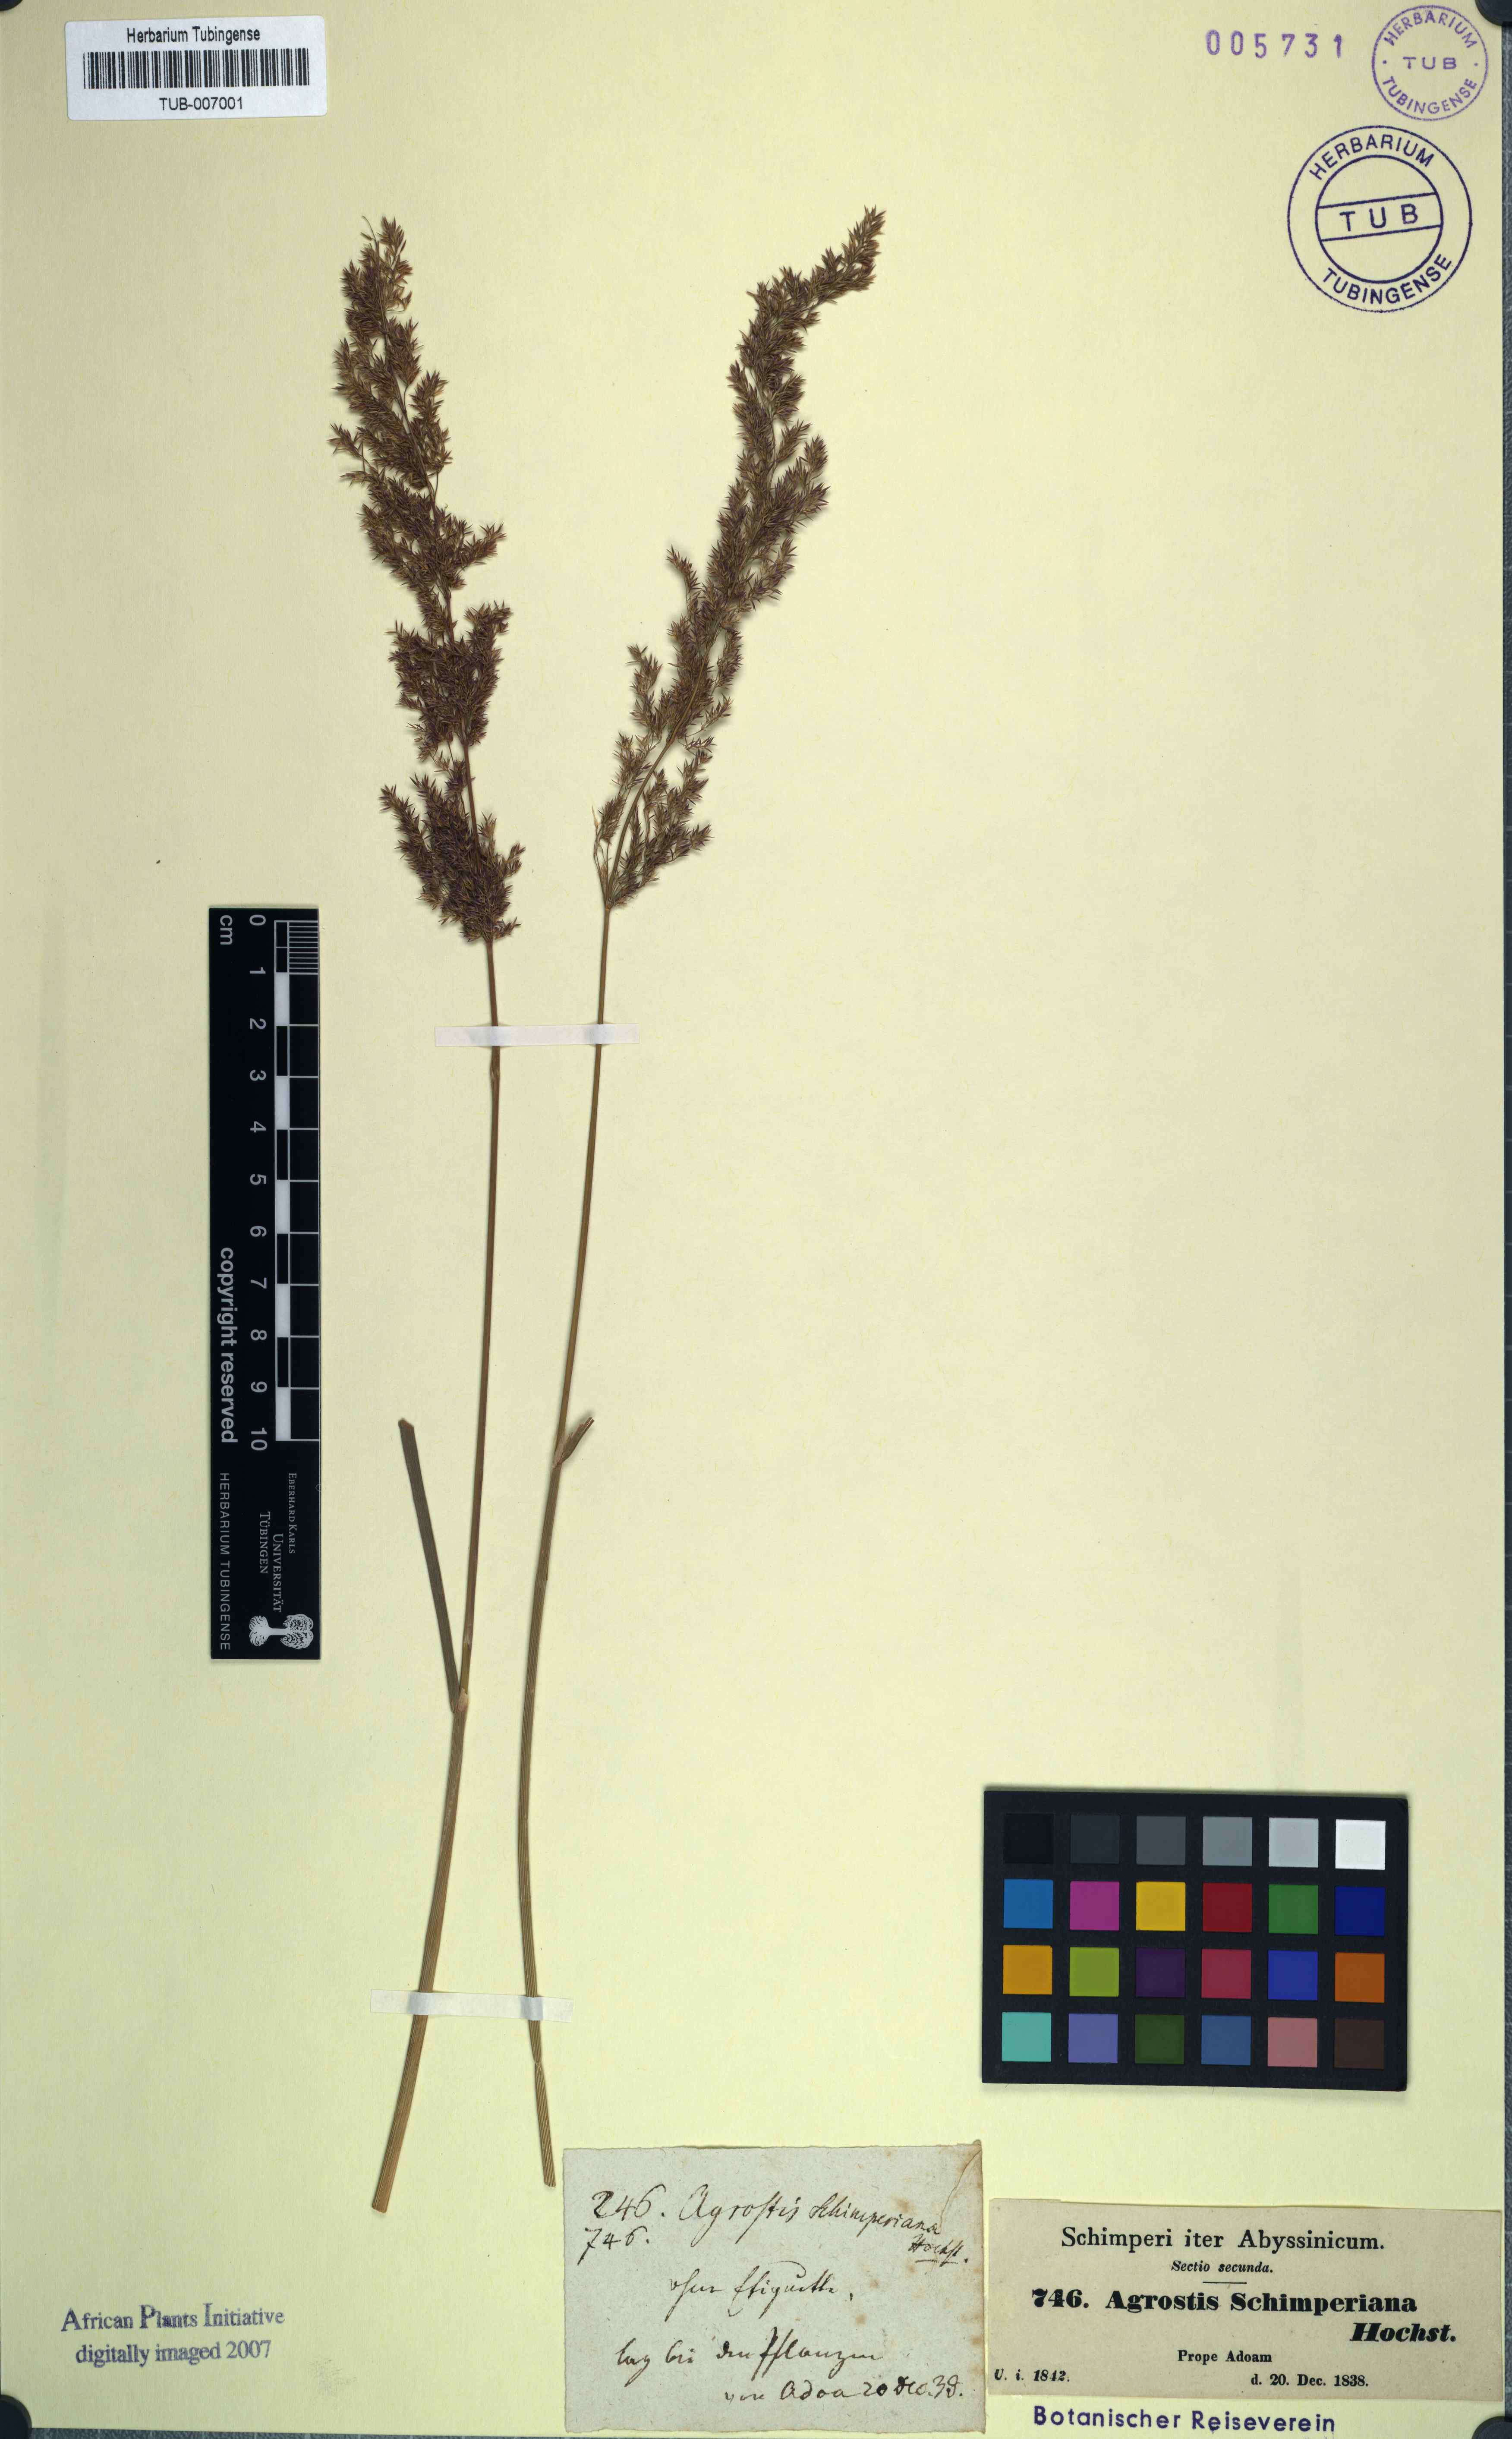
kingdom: Plantae
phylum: Tracheophyta
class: Liliopsida
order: Poales
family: Poaceae
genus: Polypogon
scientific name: Polypogon schimperianus
